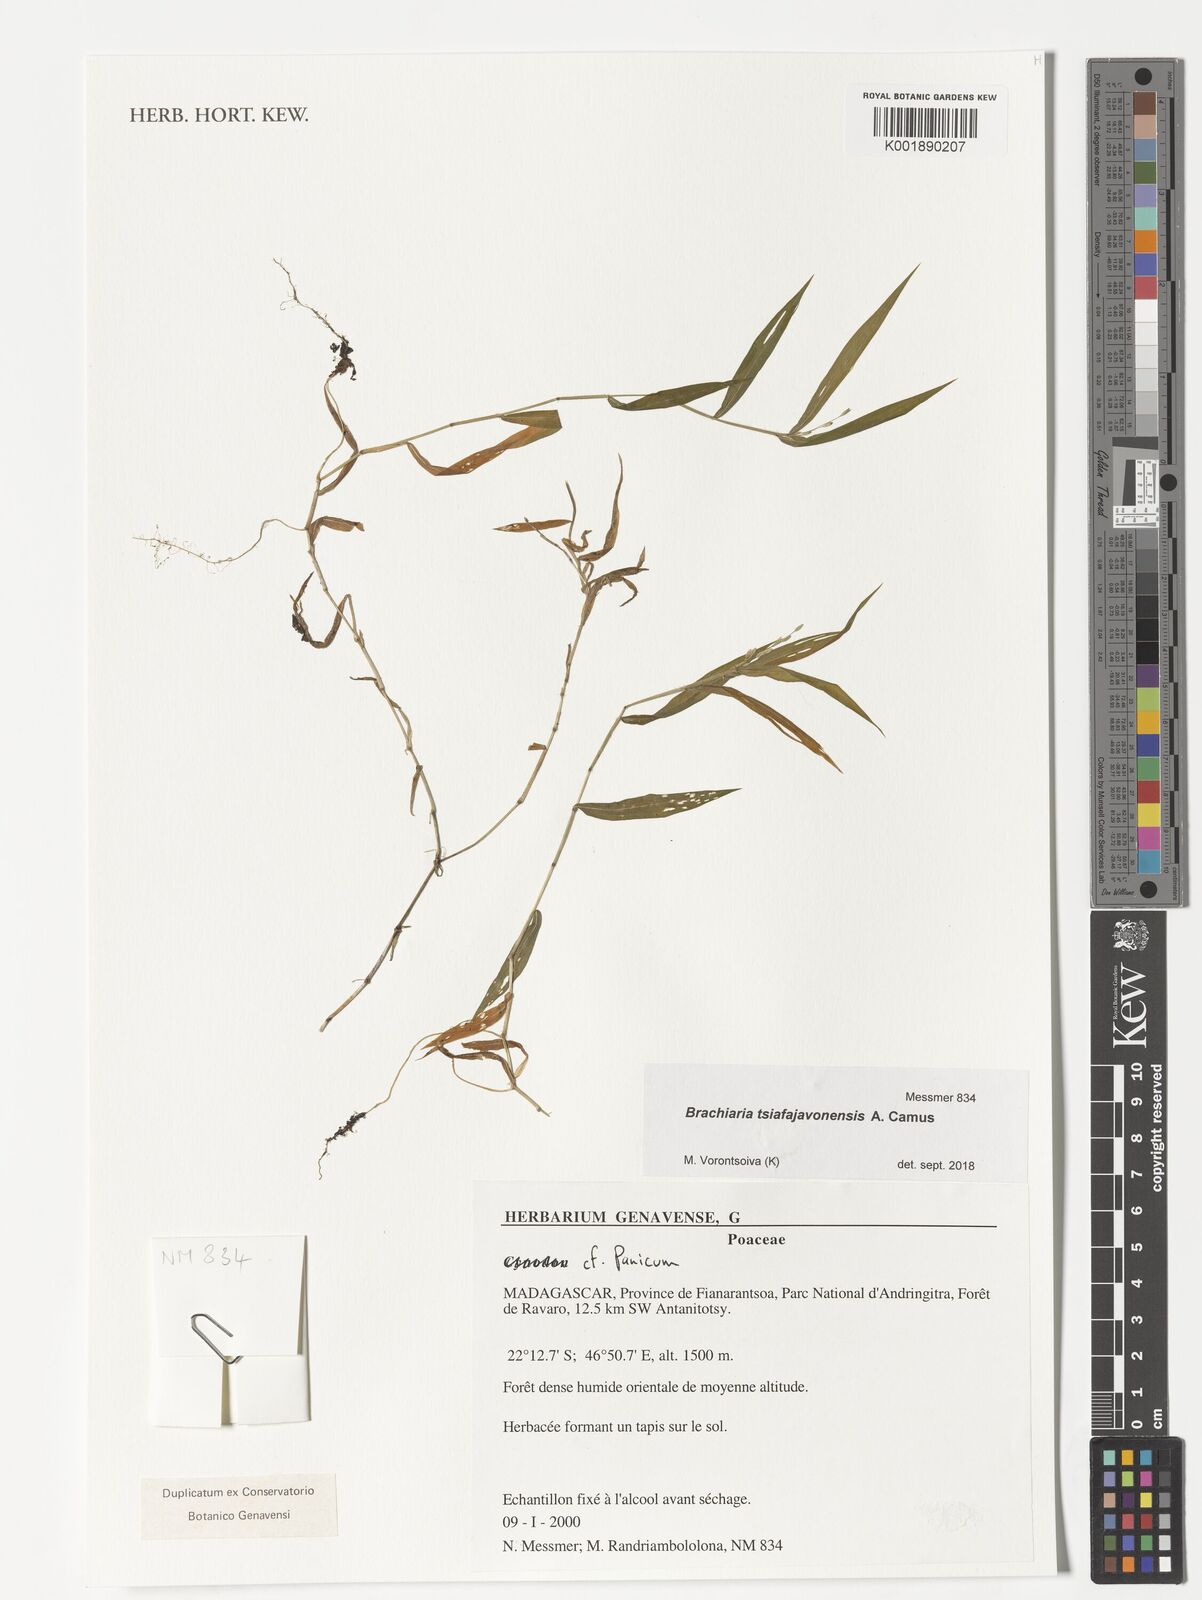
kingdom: Plantae
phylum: Tracheophyta
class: Liliopsida
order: Poales
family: Poaceae
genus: Urochloa
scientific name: Urochloa Brachiaria tsiafajavonensis
